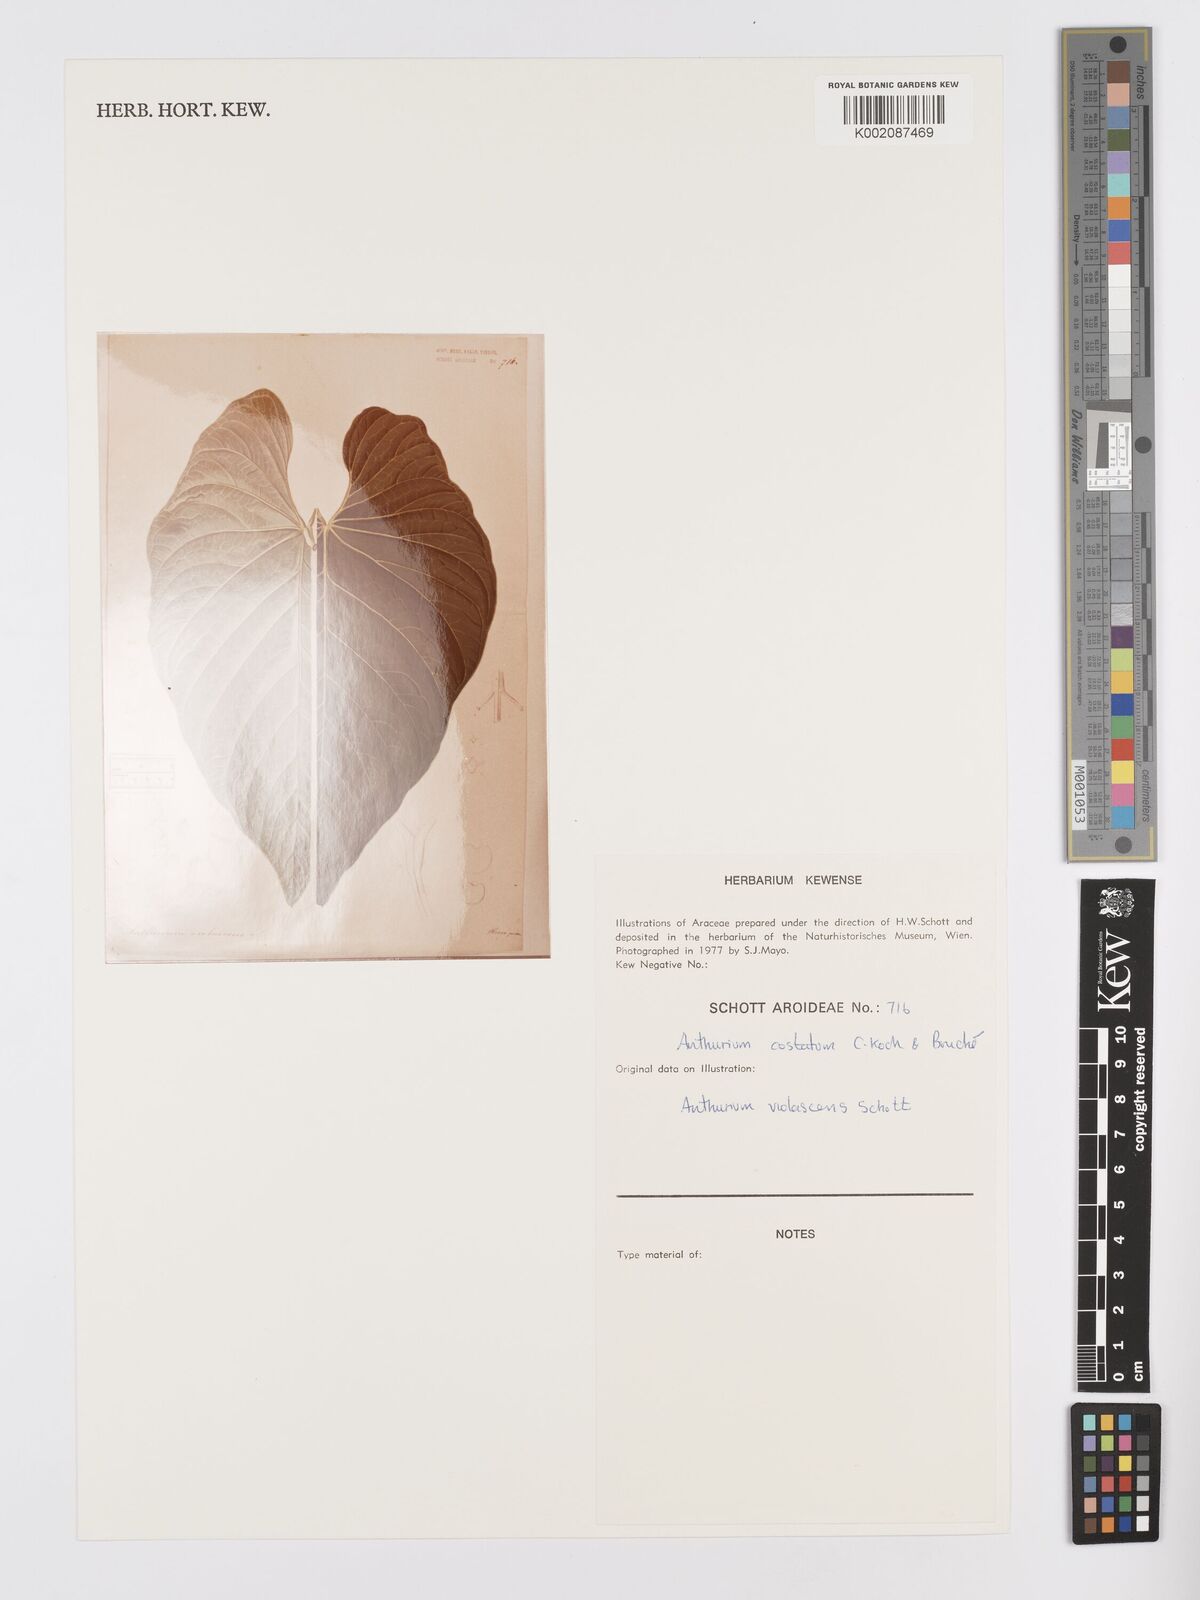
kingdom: Plantae
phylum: Tracheophyta
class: Liliopsida
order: Alismatales
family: Araceae
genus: Anthurium
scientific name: Anthurium macrophyllum
